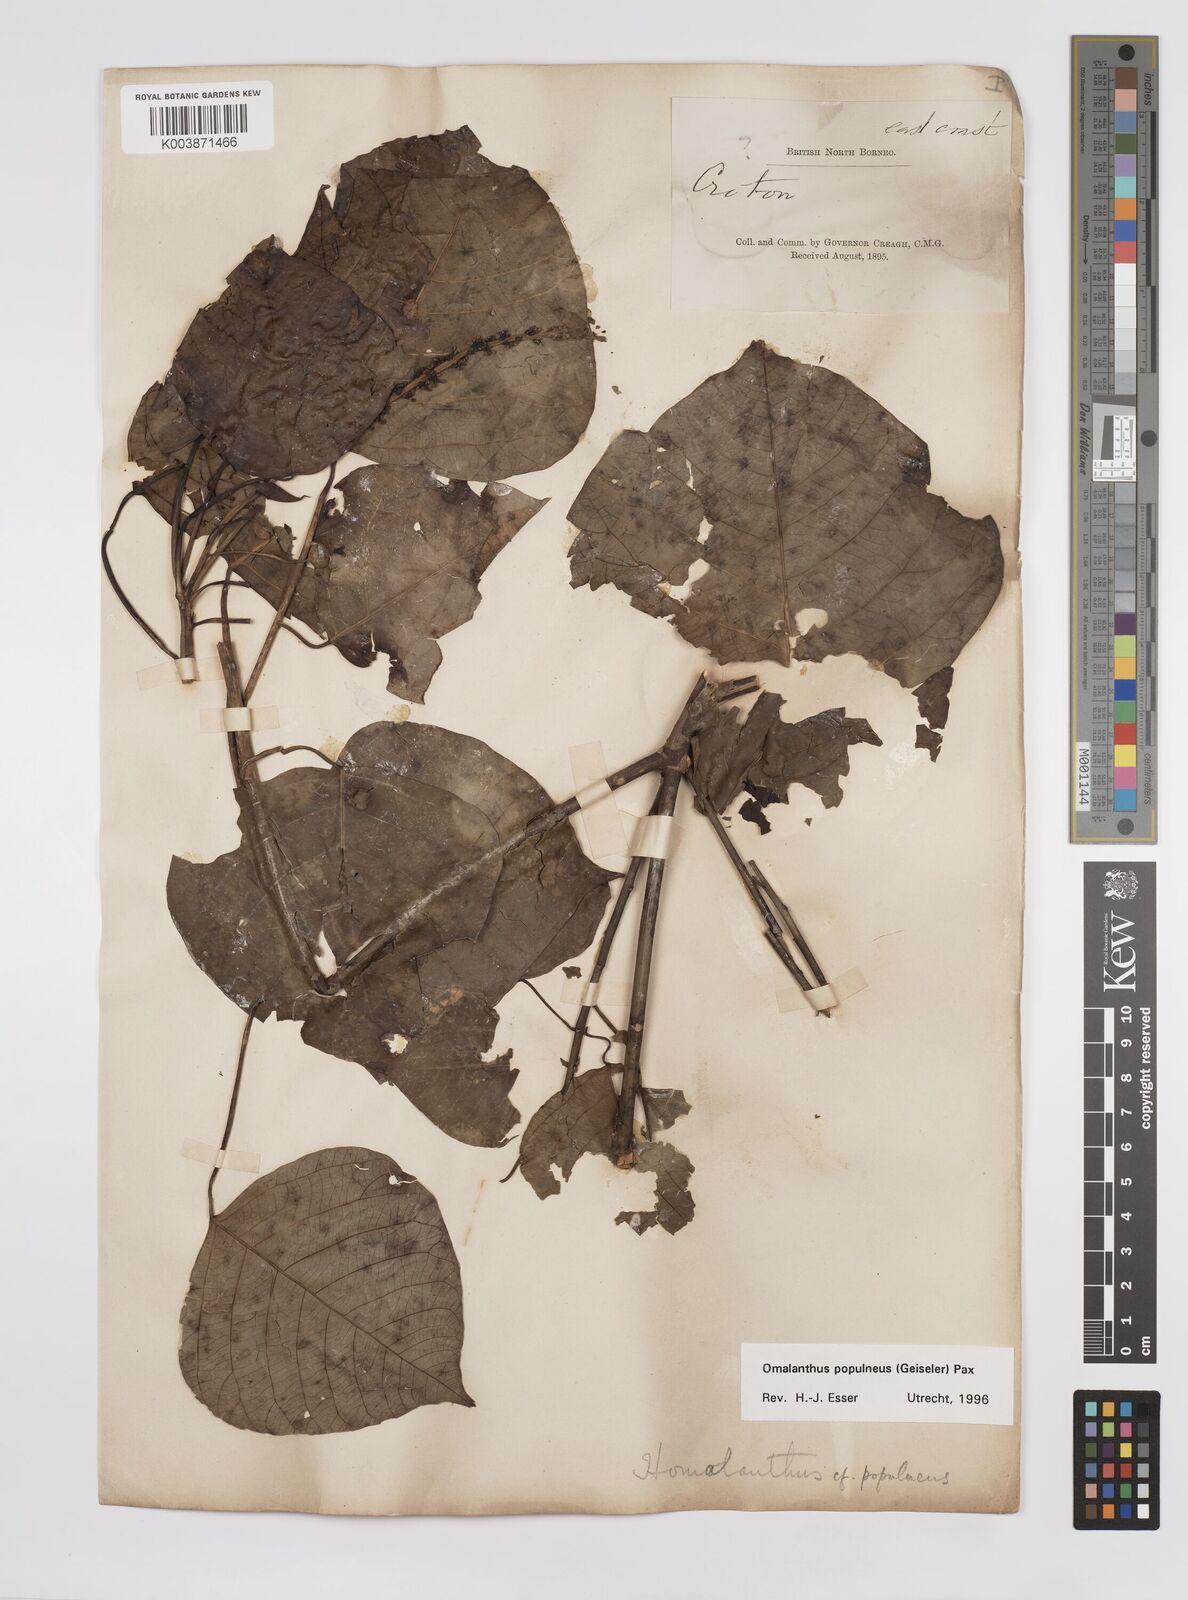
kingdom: Plantae
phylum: Tracheophyta
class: Magnoliopsida
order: Malpighiales
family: Euphorbiaceae
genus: Homalanthus
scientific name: Homalanthus populneus
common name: Spurge
